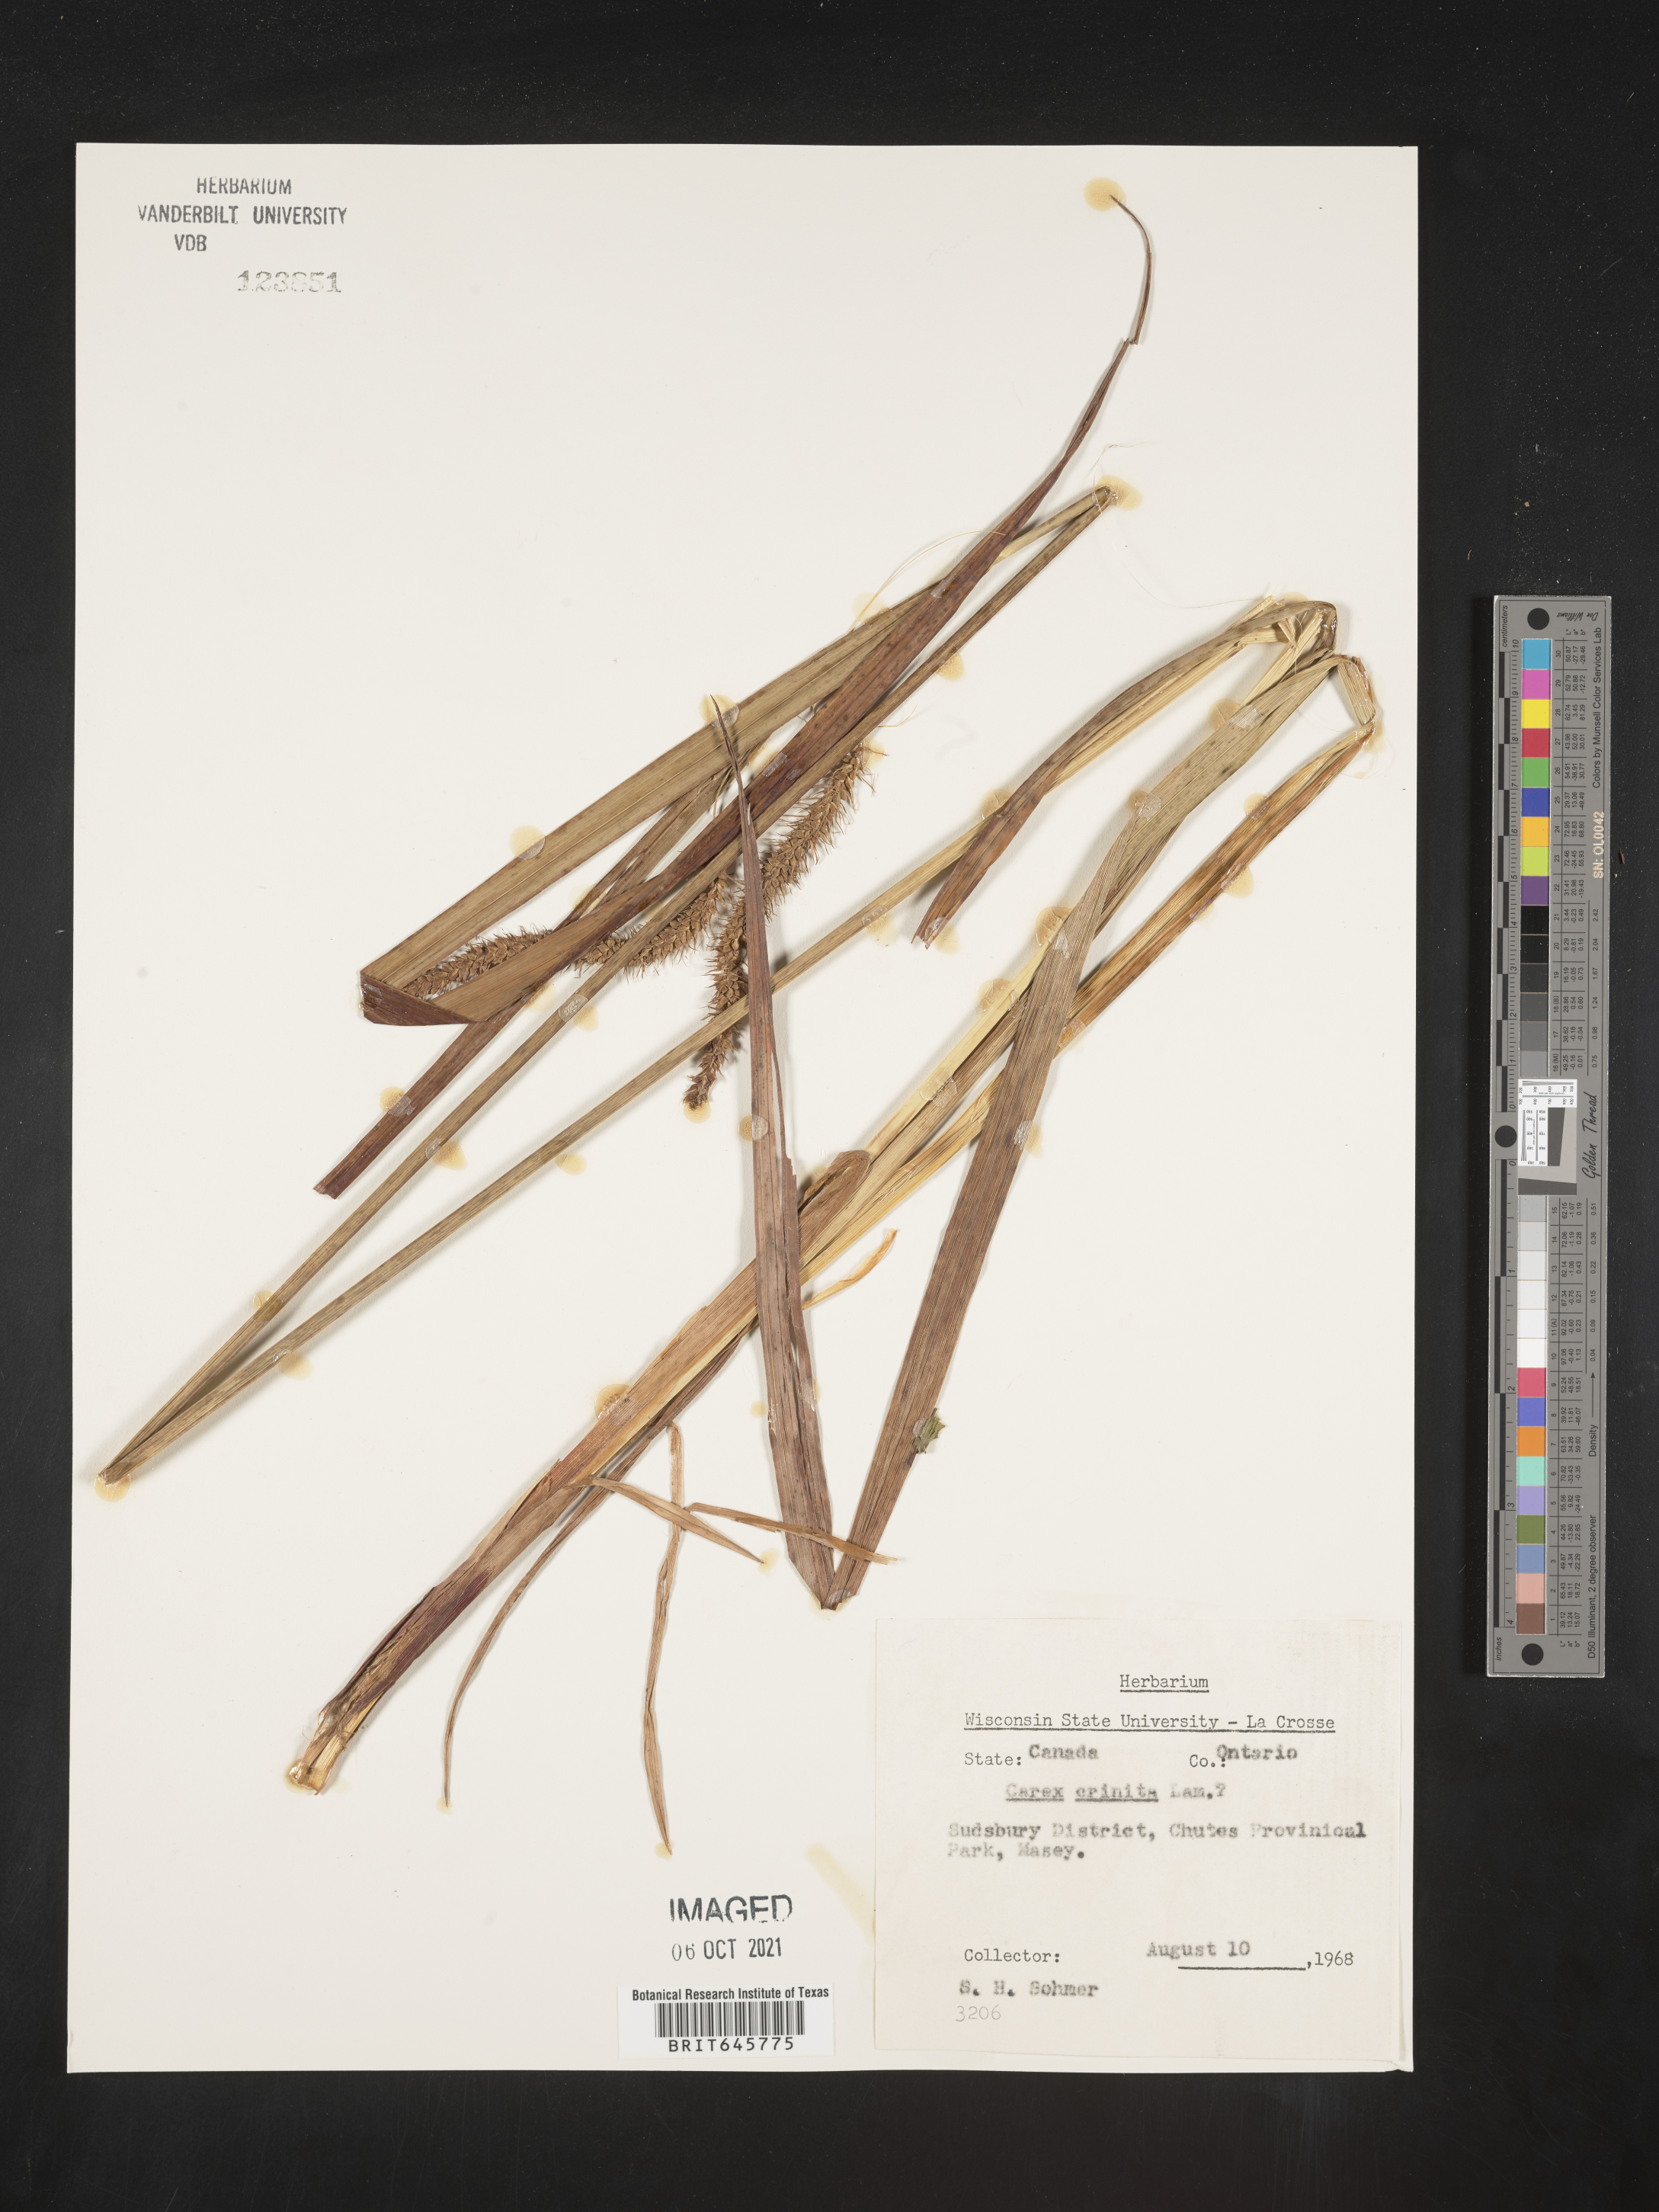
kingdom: Plantae
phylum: Tracheophyta
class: Liliopsida
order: Poales
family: Cyperaceae
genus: Carex
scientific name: Carex crinita
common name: Fringed sedge
